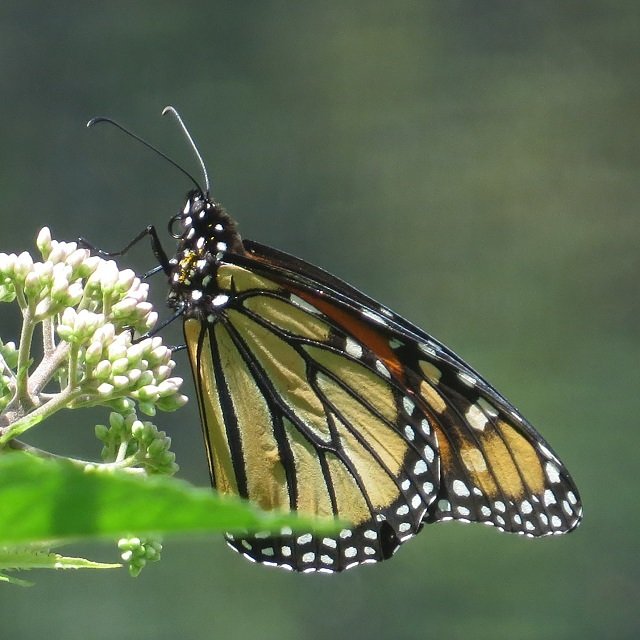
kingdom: Animalia
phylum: Arthropoda
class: Insecta
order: Lepidoptera
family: Nymphalidae
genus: Danaus
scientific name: Danaus plexippus
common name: Monarch
